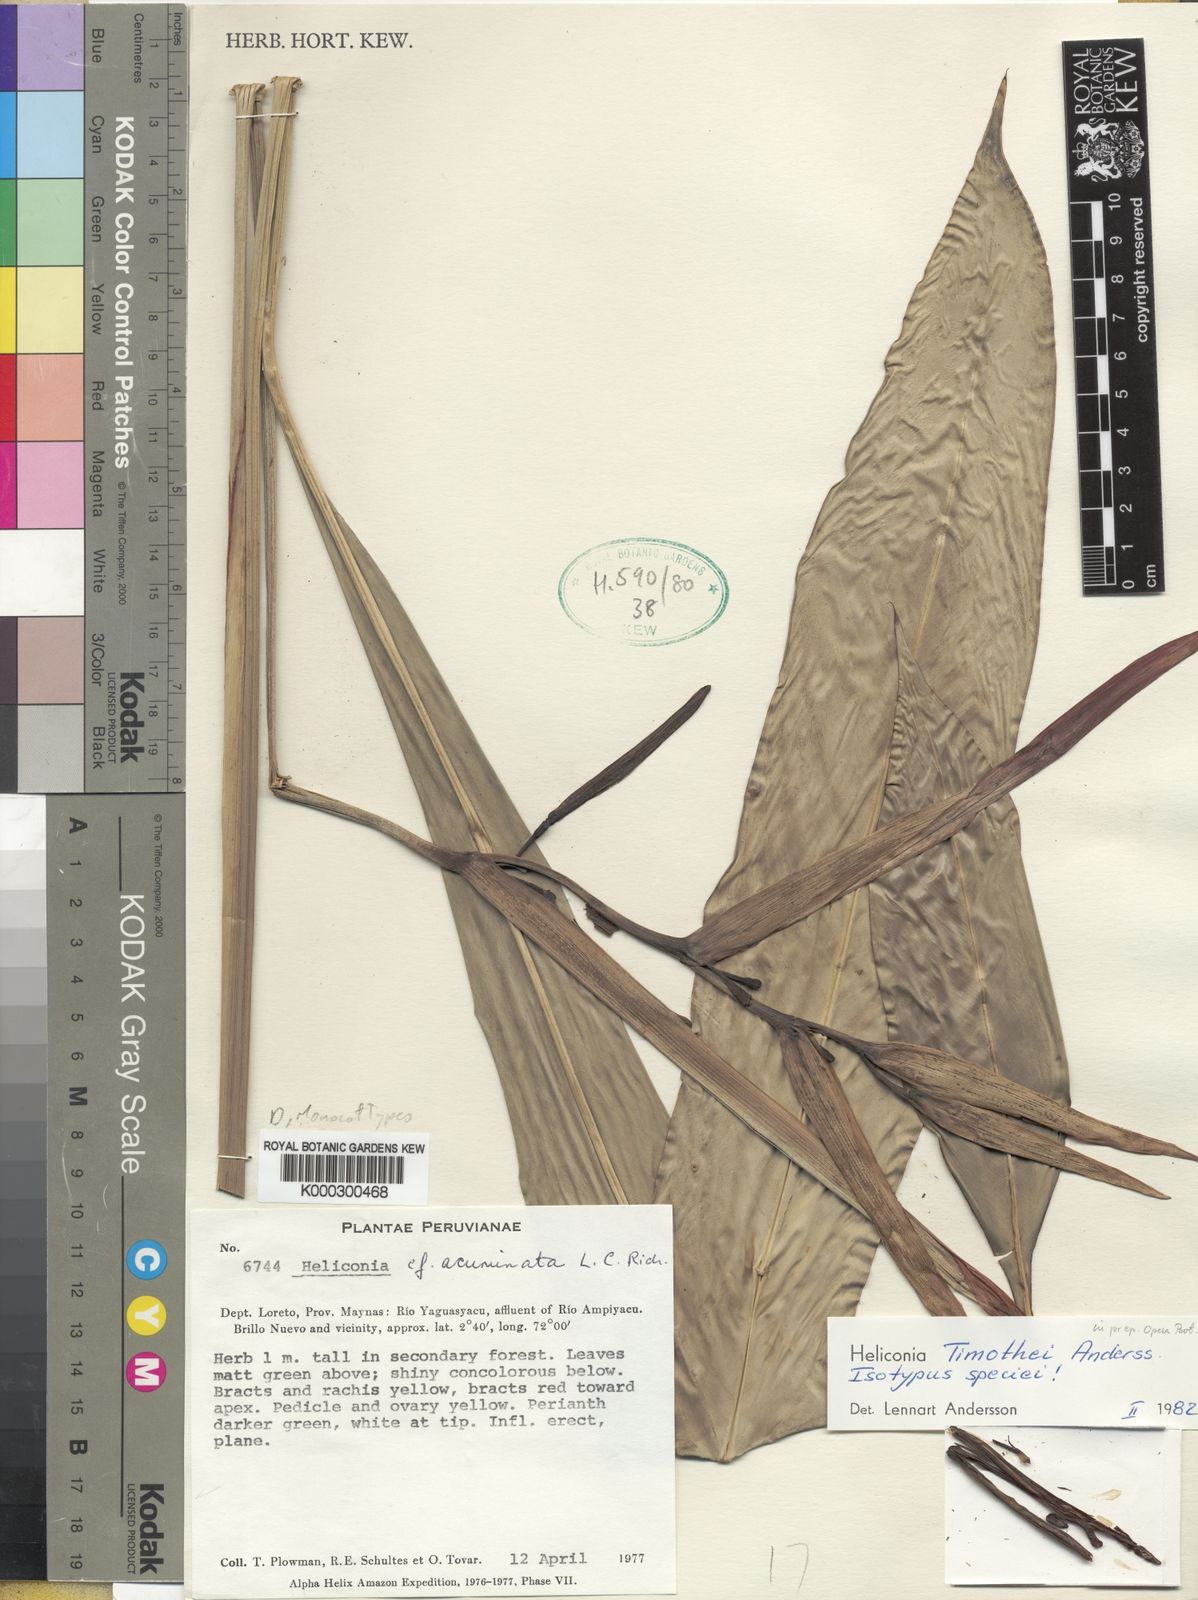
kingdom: Plantae
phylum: Tracheophyta
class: Liliopsida
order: Zingiberales
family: Heliconiaceae
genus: Heliconia
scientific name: Heliconia timothei
